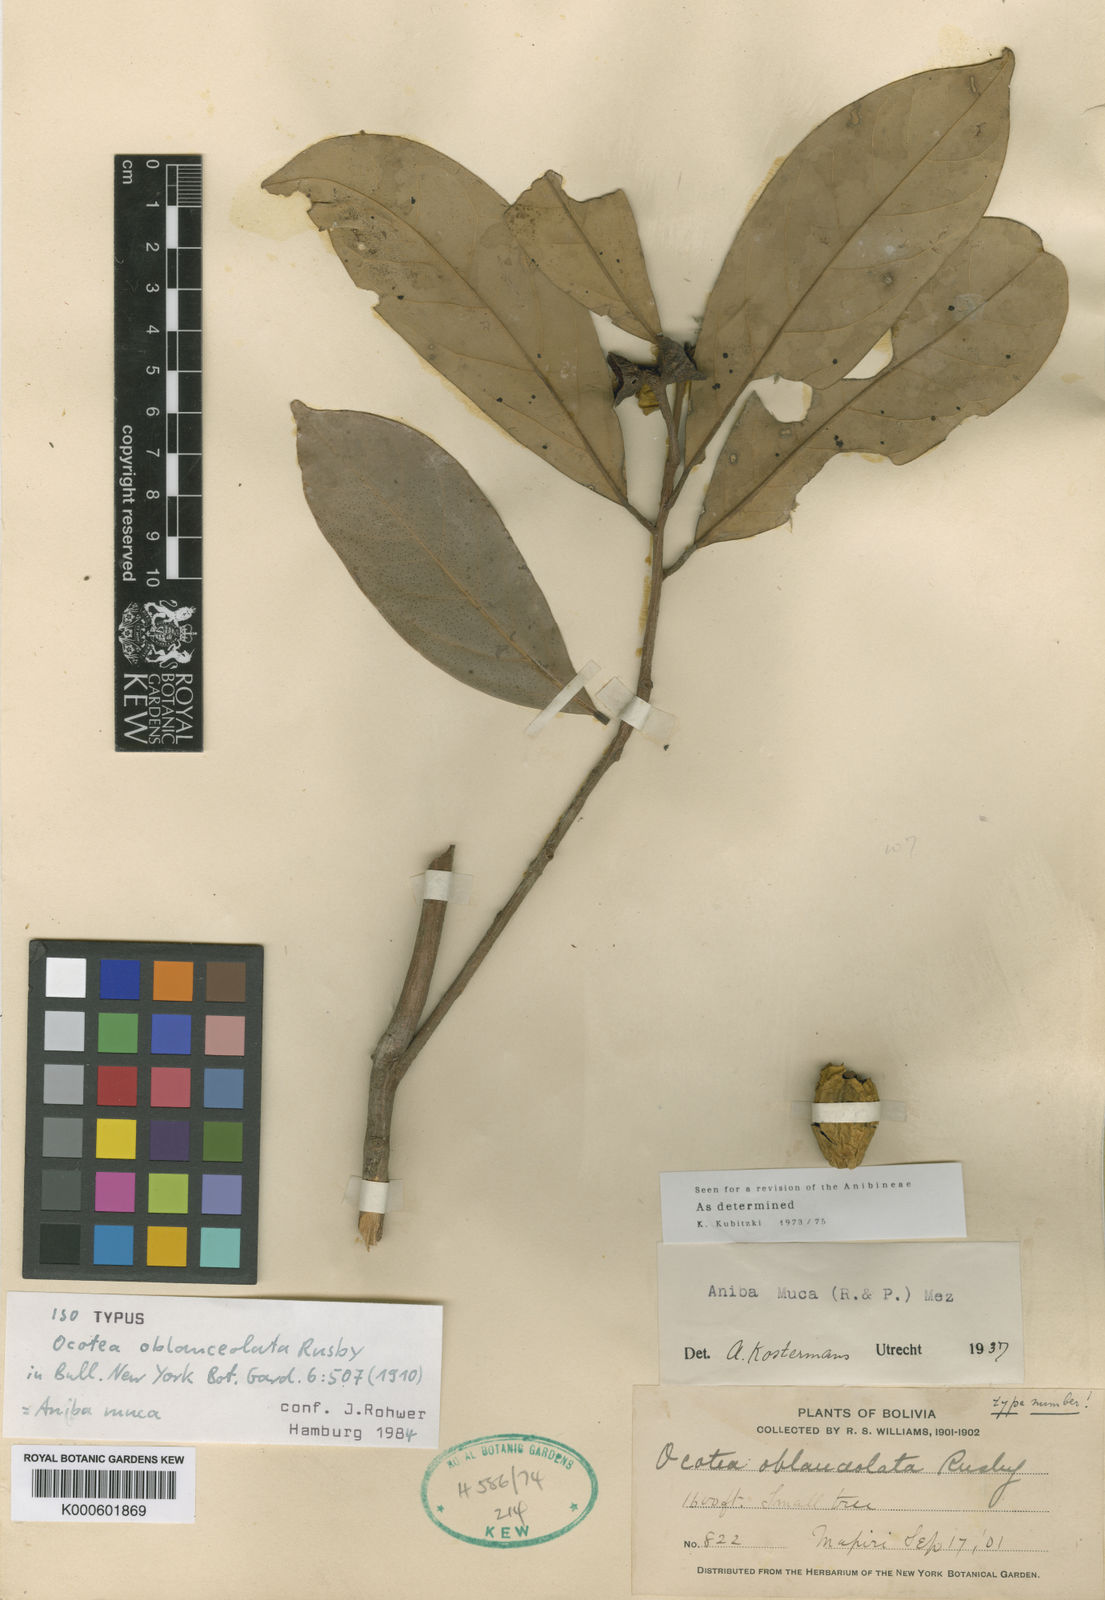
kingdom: Plantae
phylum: Tracheophyta
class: Magnoliopsida
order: Laurales
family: Lauraceae
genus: Aniba
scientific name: Aniba muca
